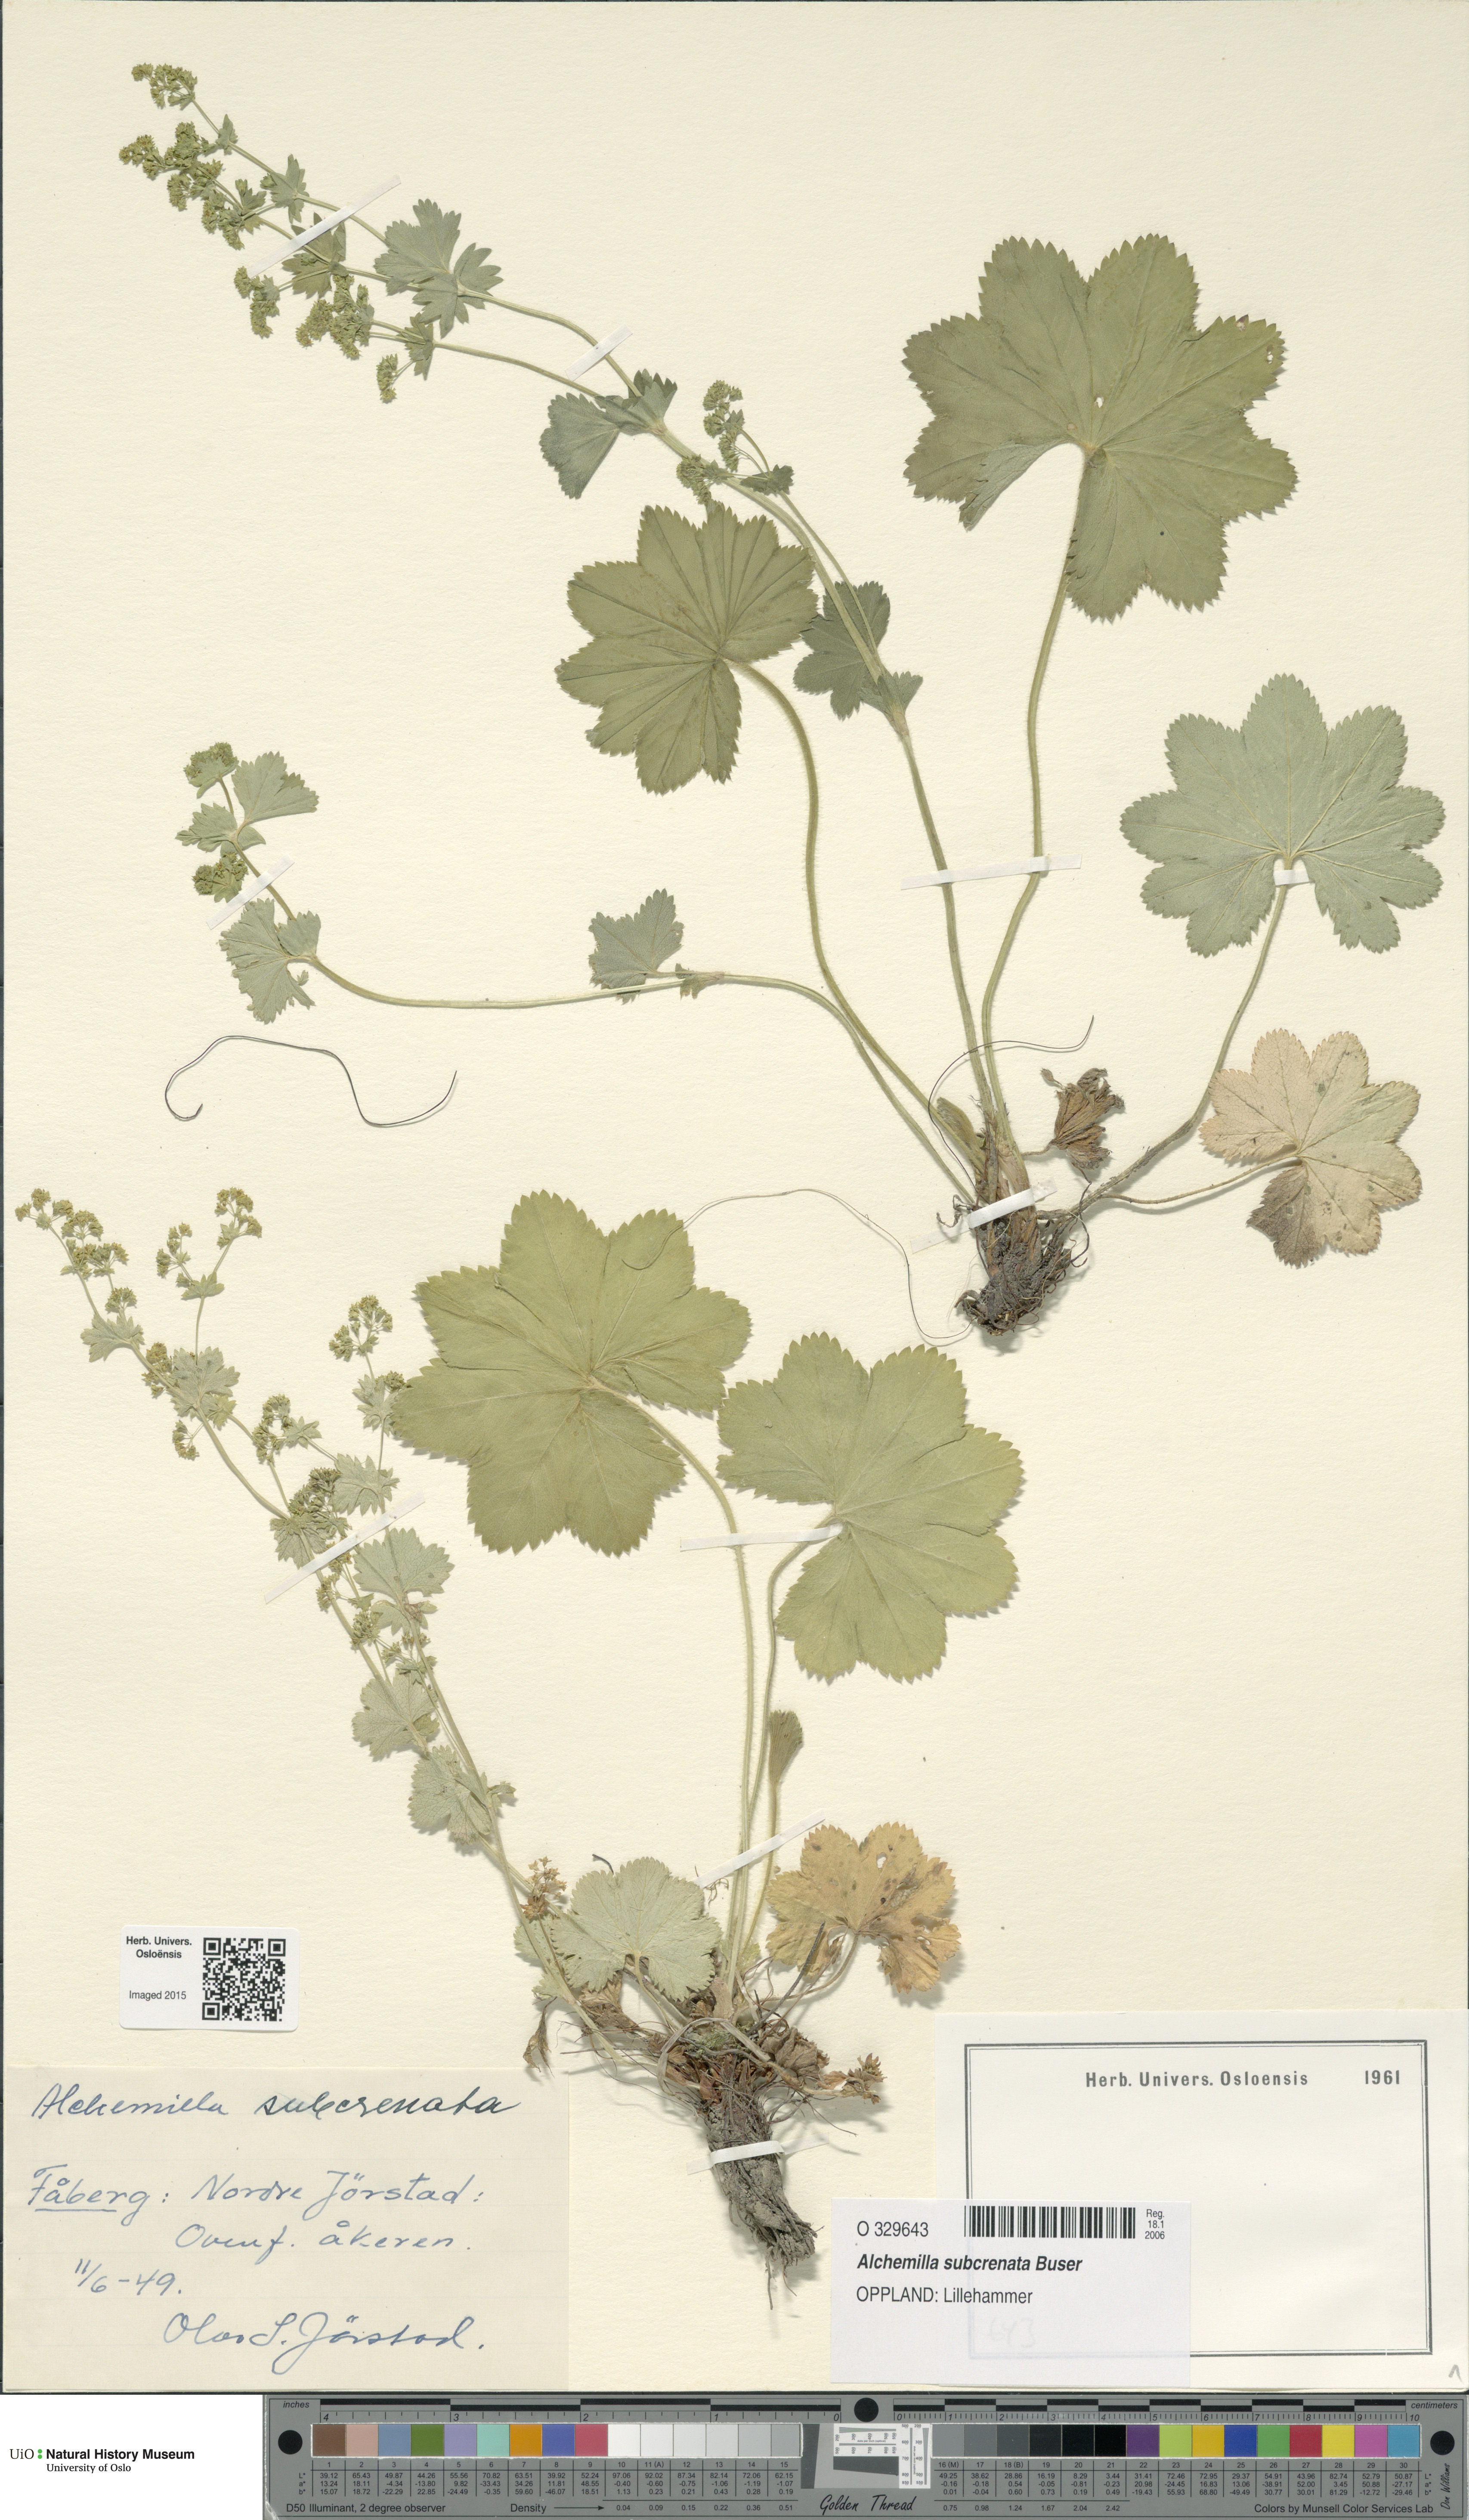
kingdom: Plantae
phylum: Tracheophyta
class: Magnoliopsida
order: Rosales
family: Rosaceae
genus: Alchemilla
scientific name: Alchemilla subcrenata
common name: Broadtooth lady's mantle
